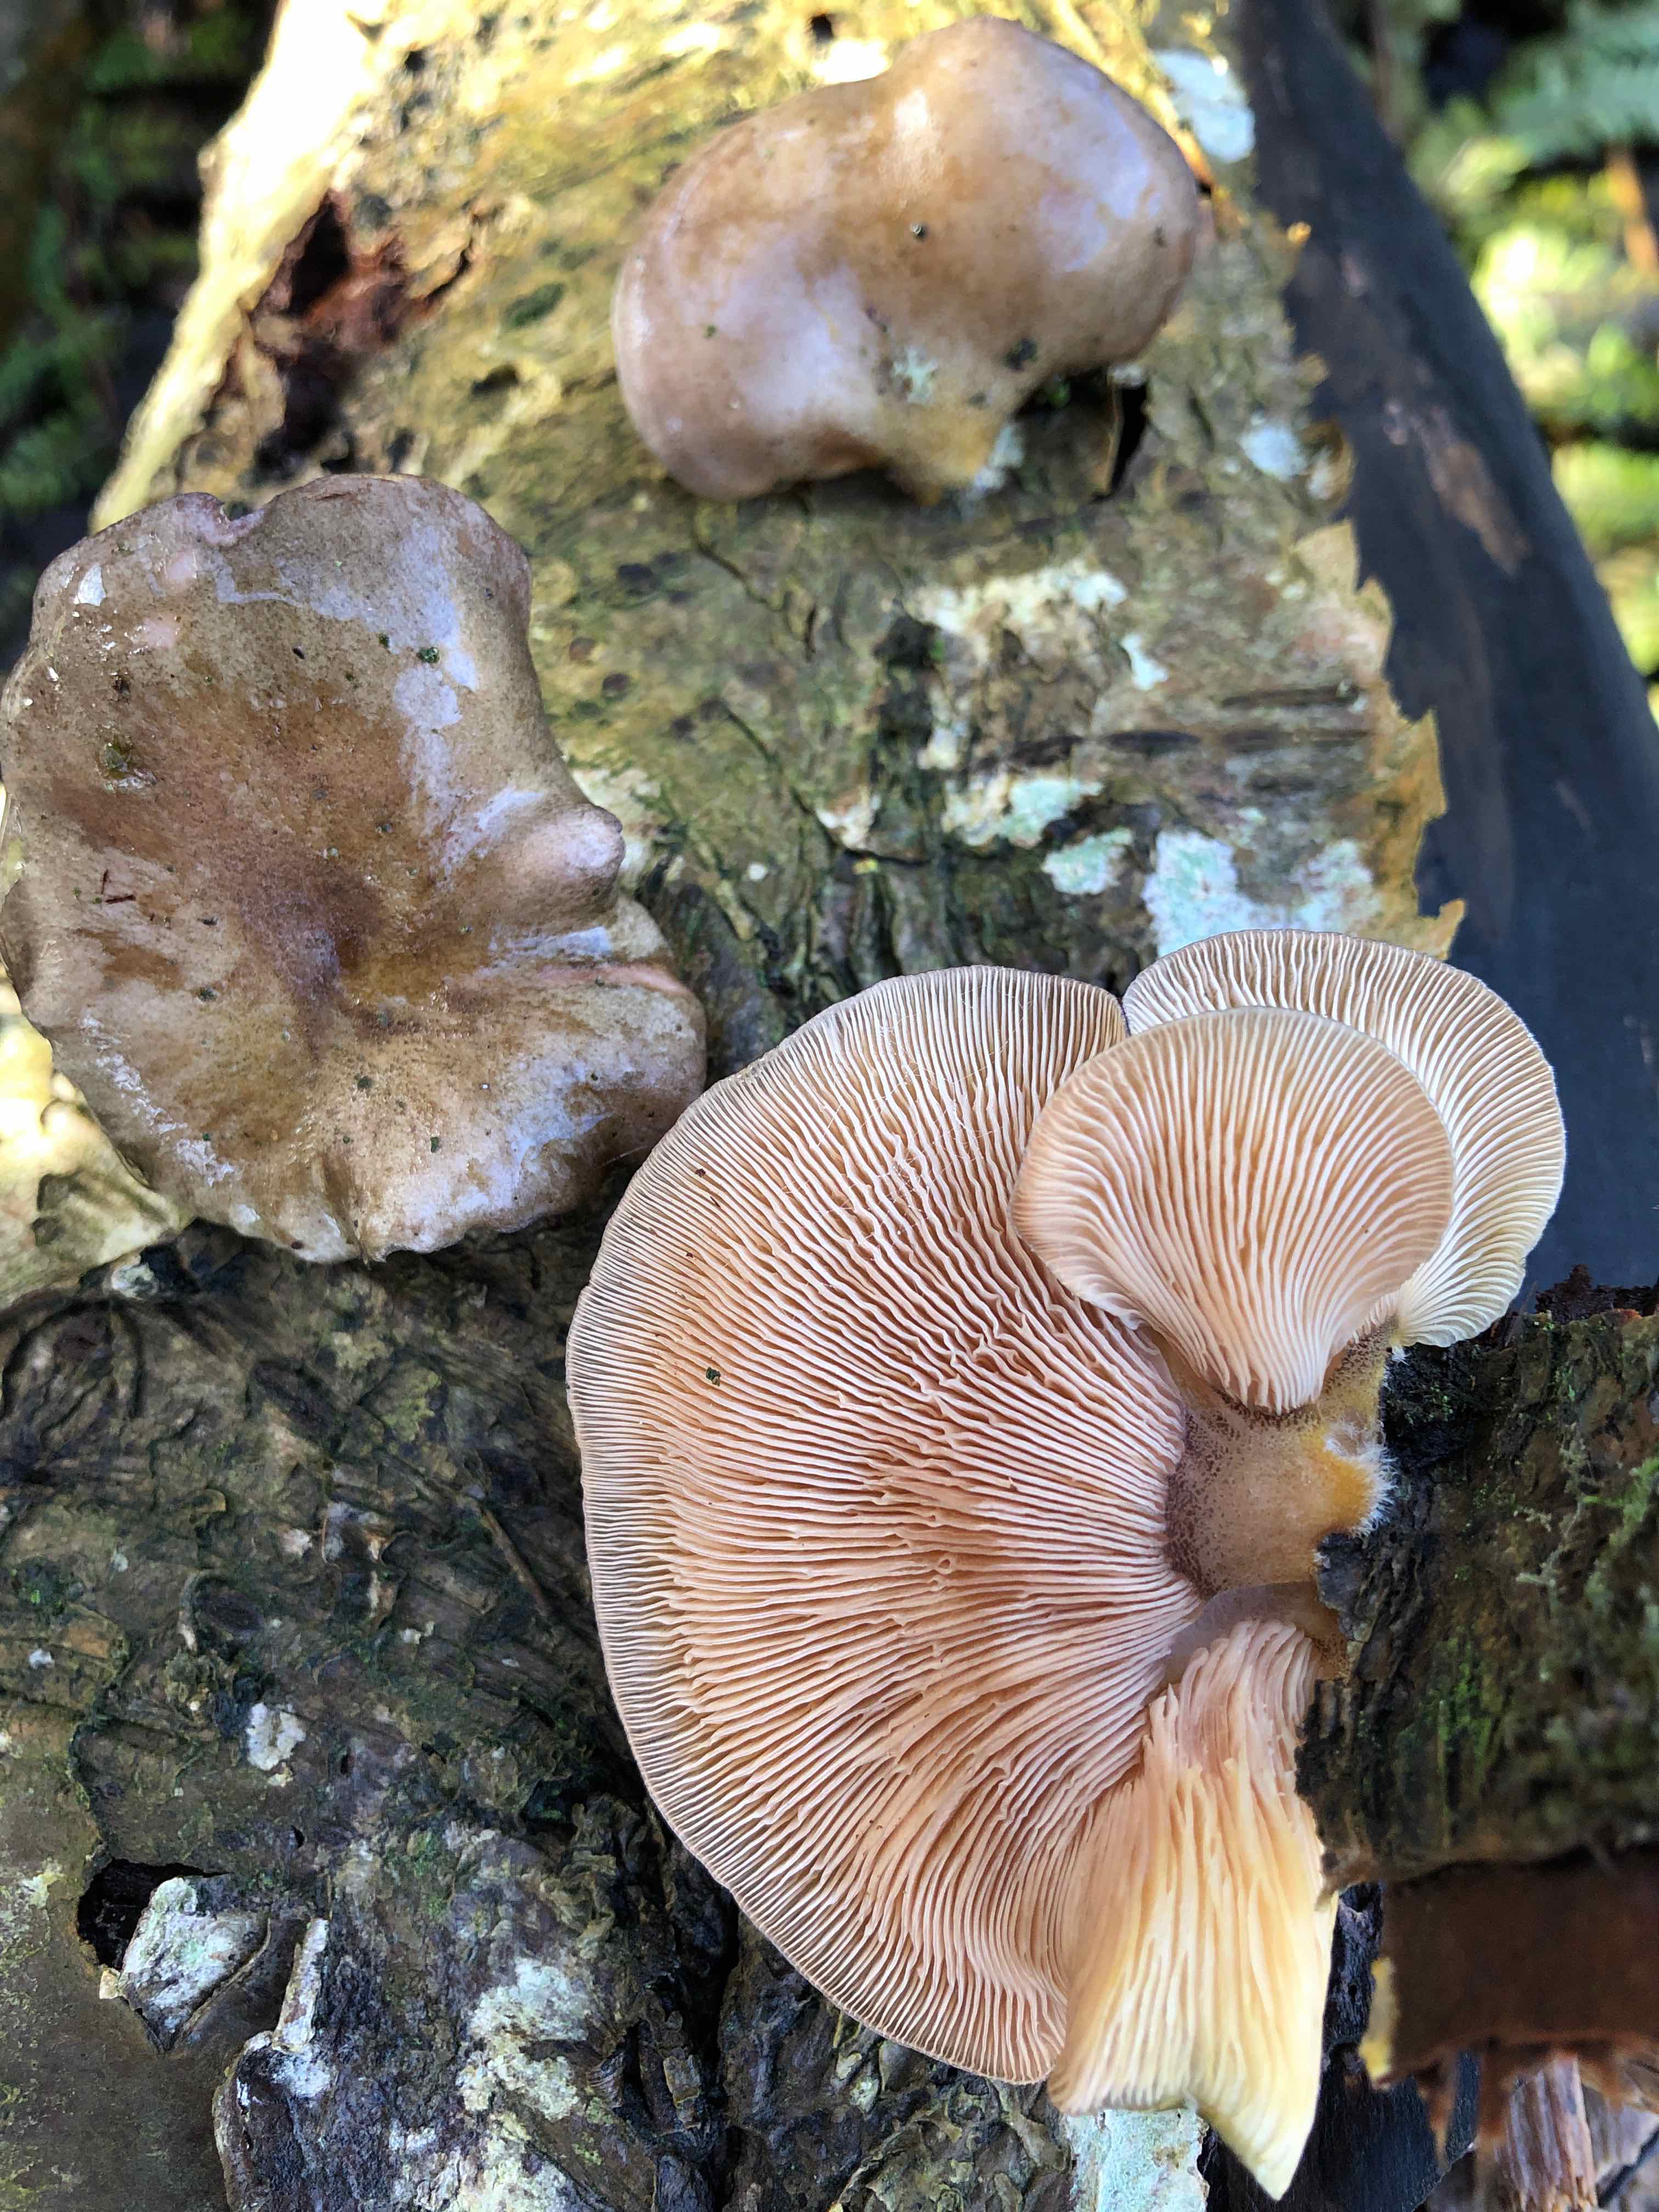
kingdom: Fungi
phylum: Basidiomycota
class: Agaricomycetes
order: Agaricales
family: Sarcomyxaceae
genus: Sarcomyxa
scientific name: Sarcomyxa serotina
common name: gummihat
